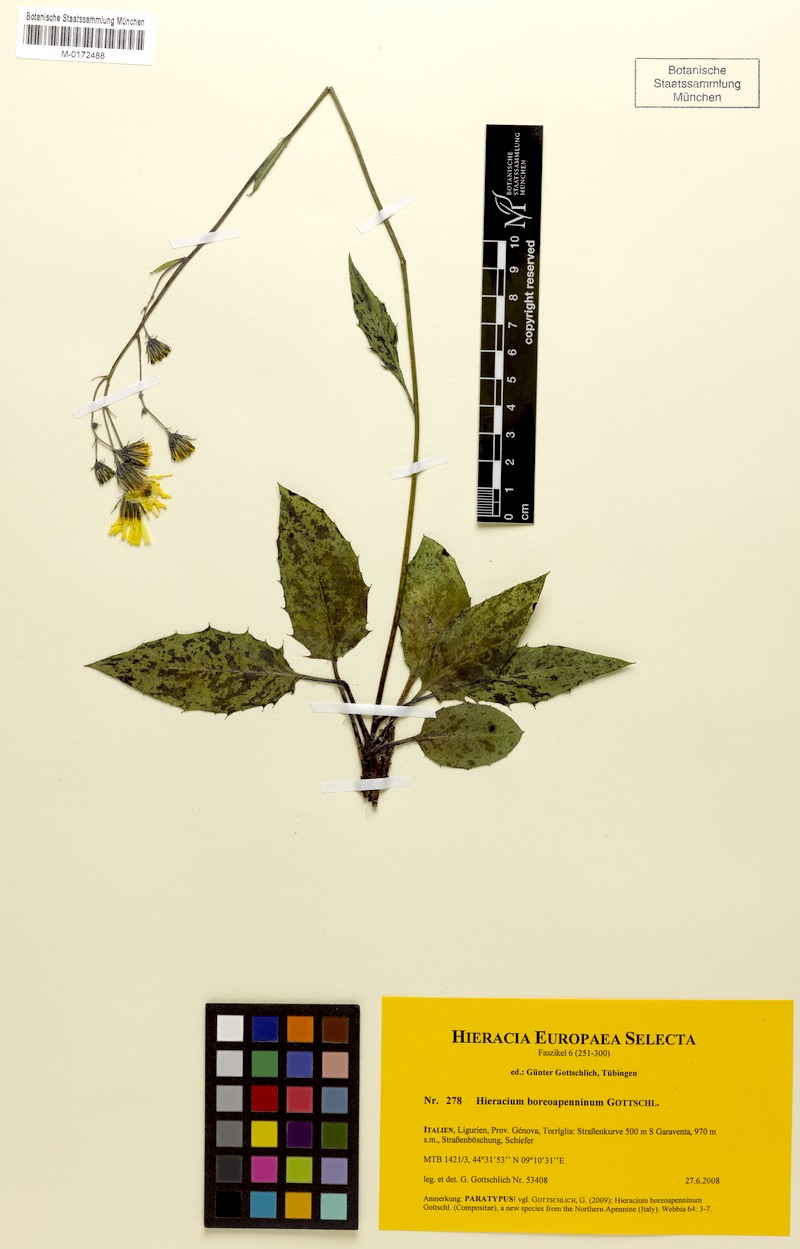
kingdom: Plantae
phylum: Tracheophyta
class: Magnoliopsida
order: Asterales
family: Asteraceae
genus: Hieracium
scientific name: Hieracium boreoapenninum
